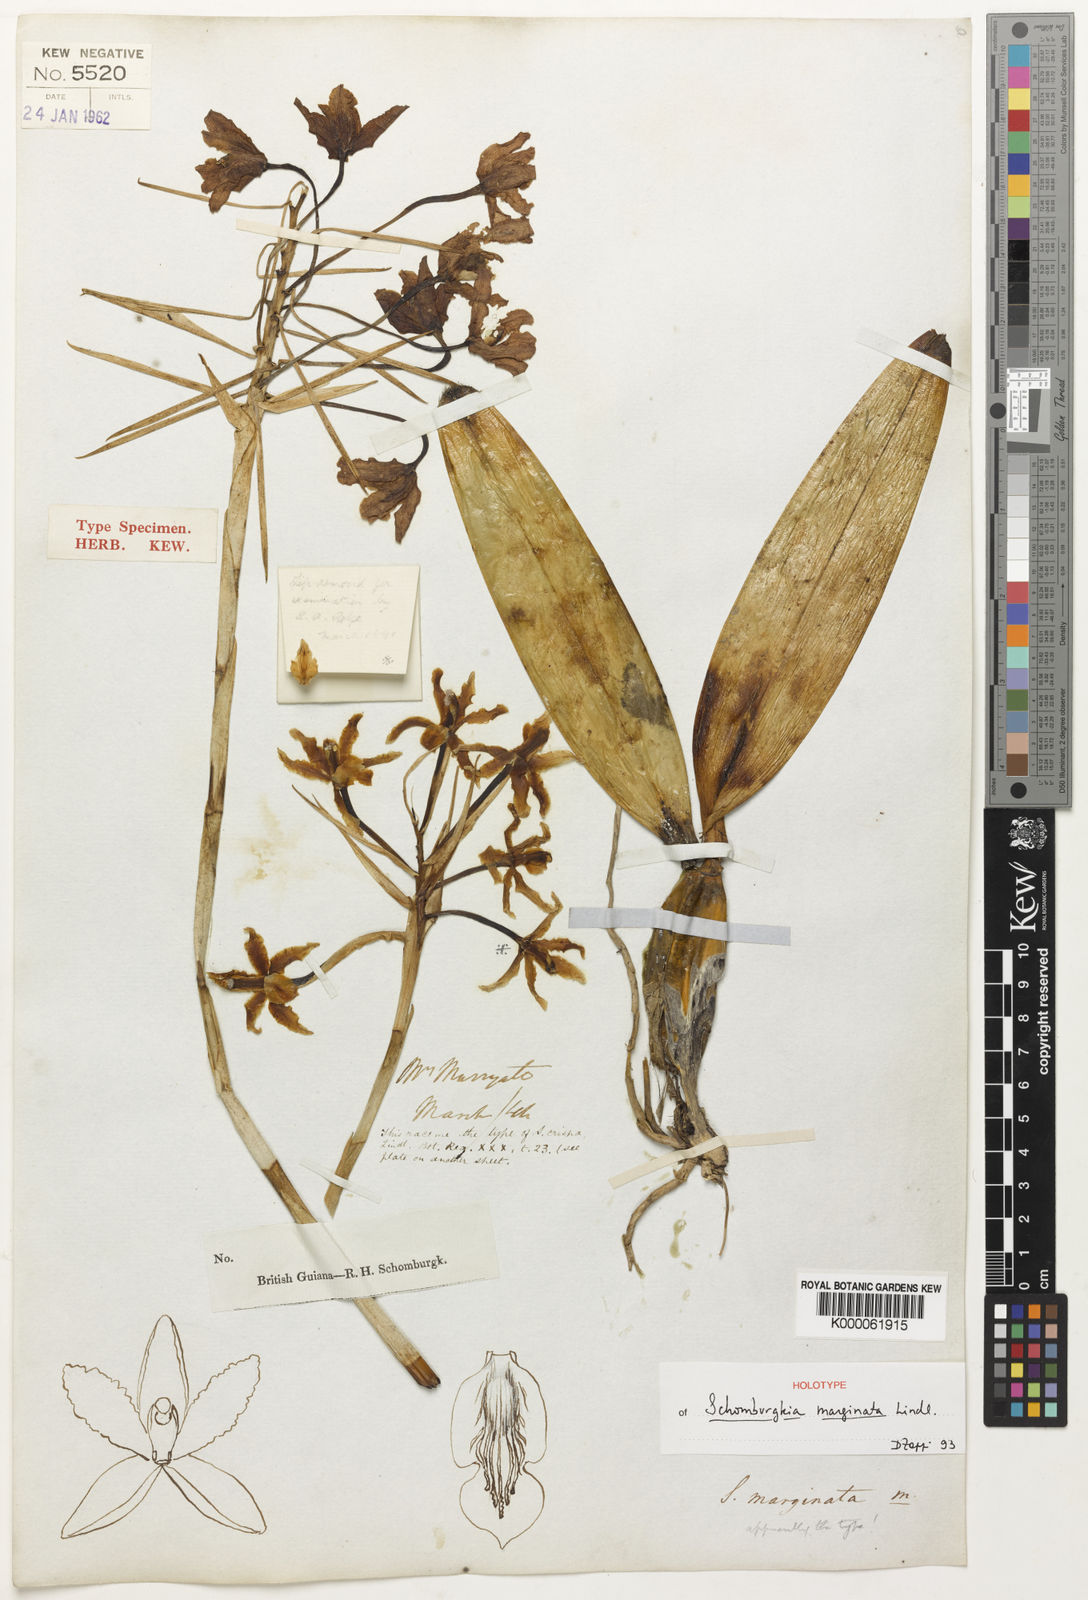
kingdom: Plantae
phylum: Tracheophyta
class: Liliopsida
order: Asparagales
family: Orchidaceae
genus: Laelia
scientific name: Laelia marginata
